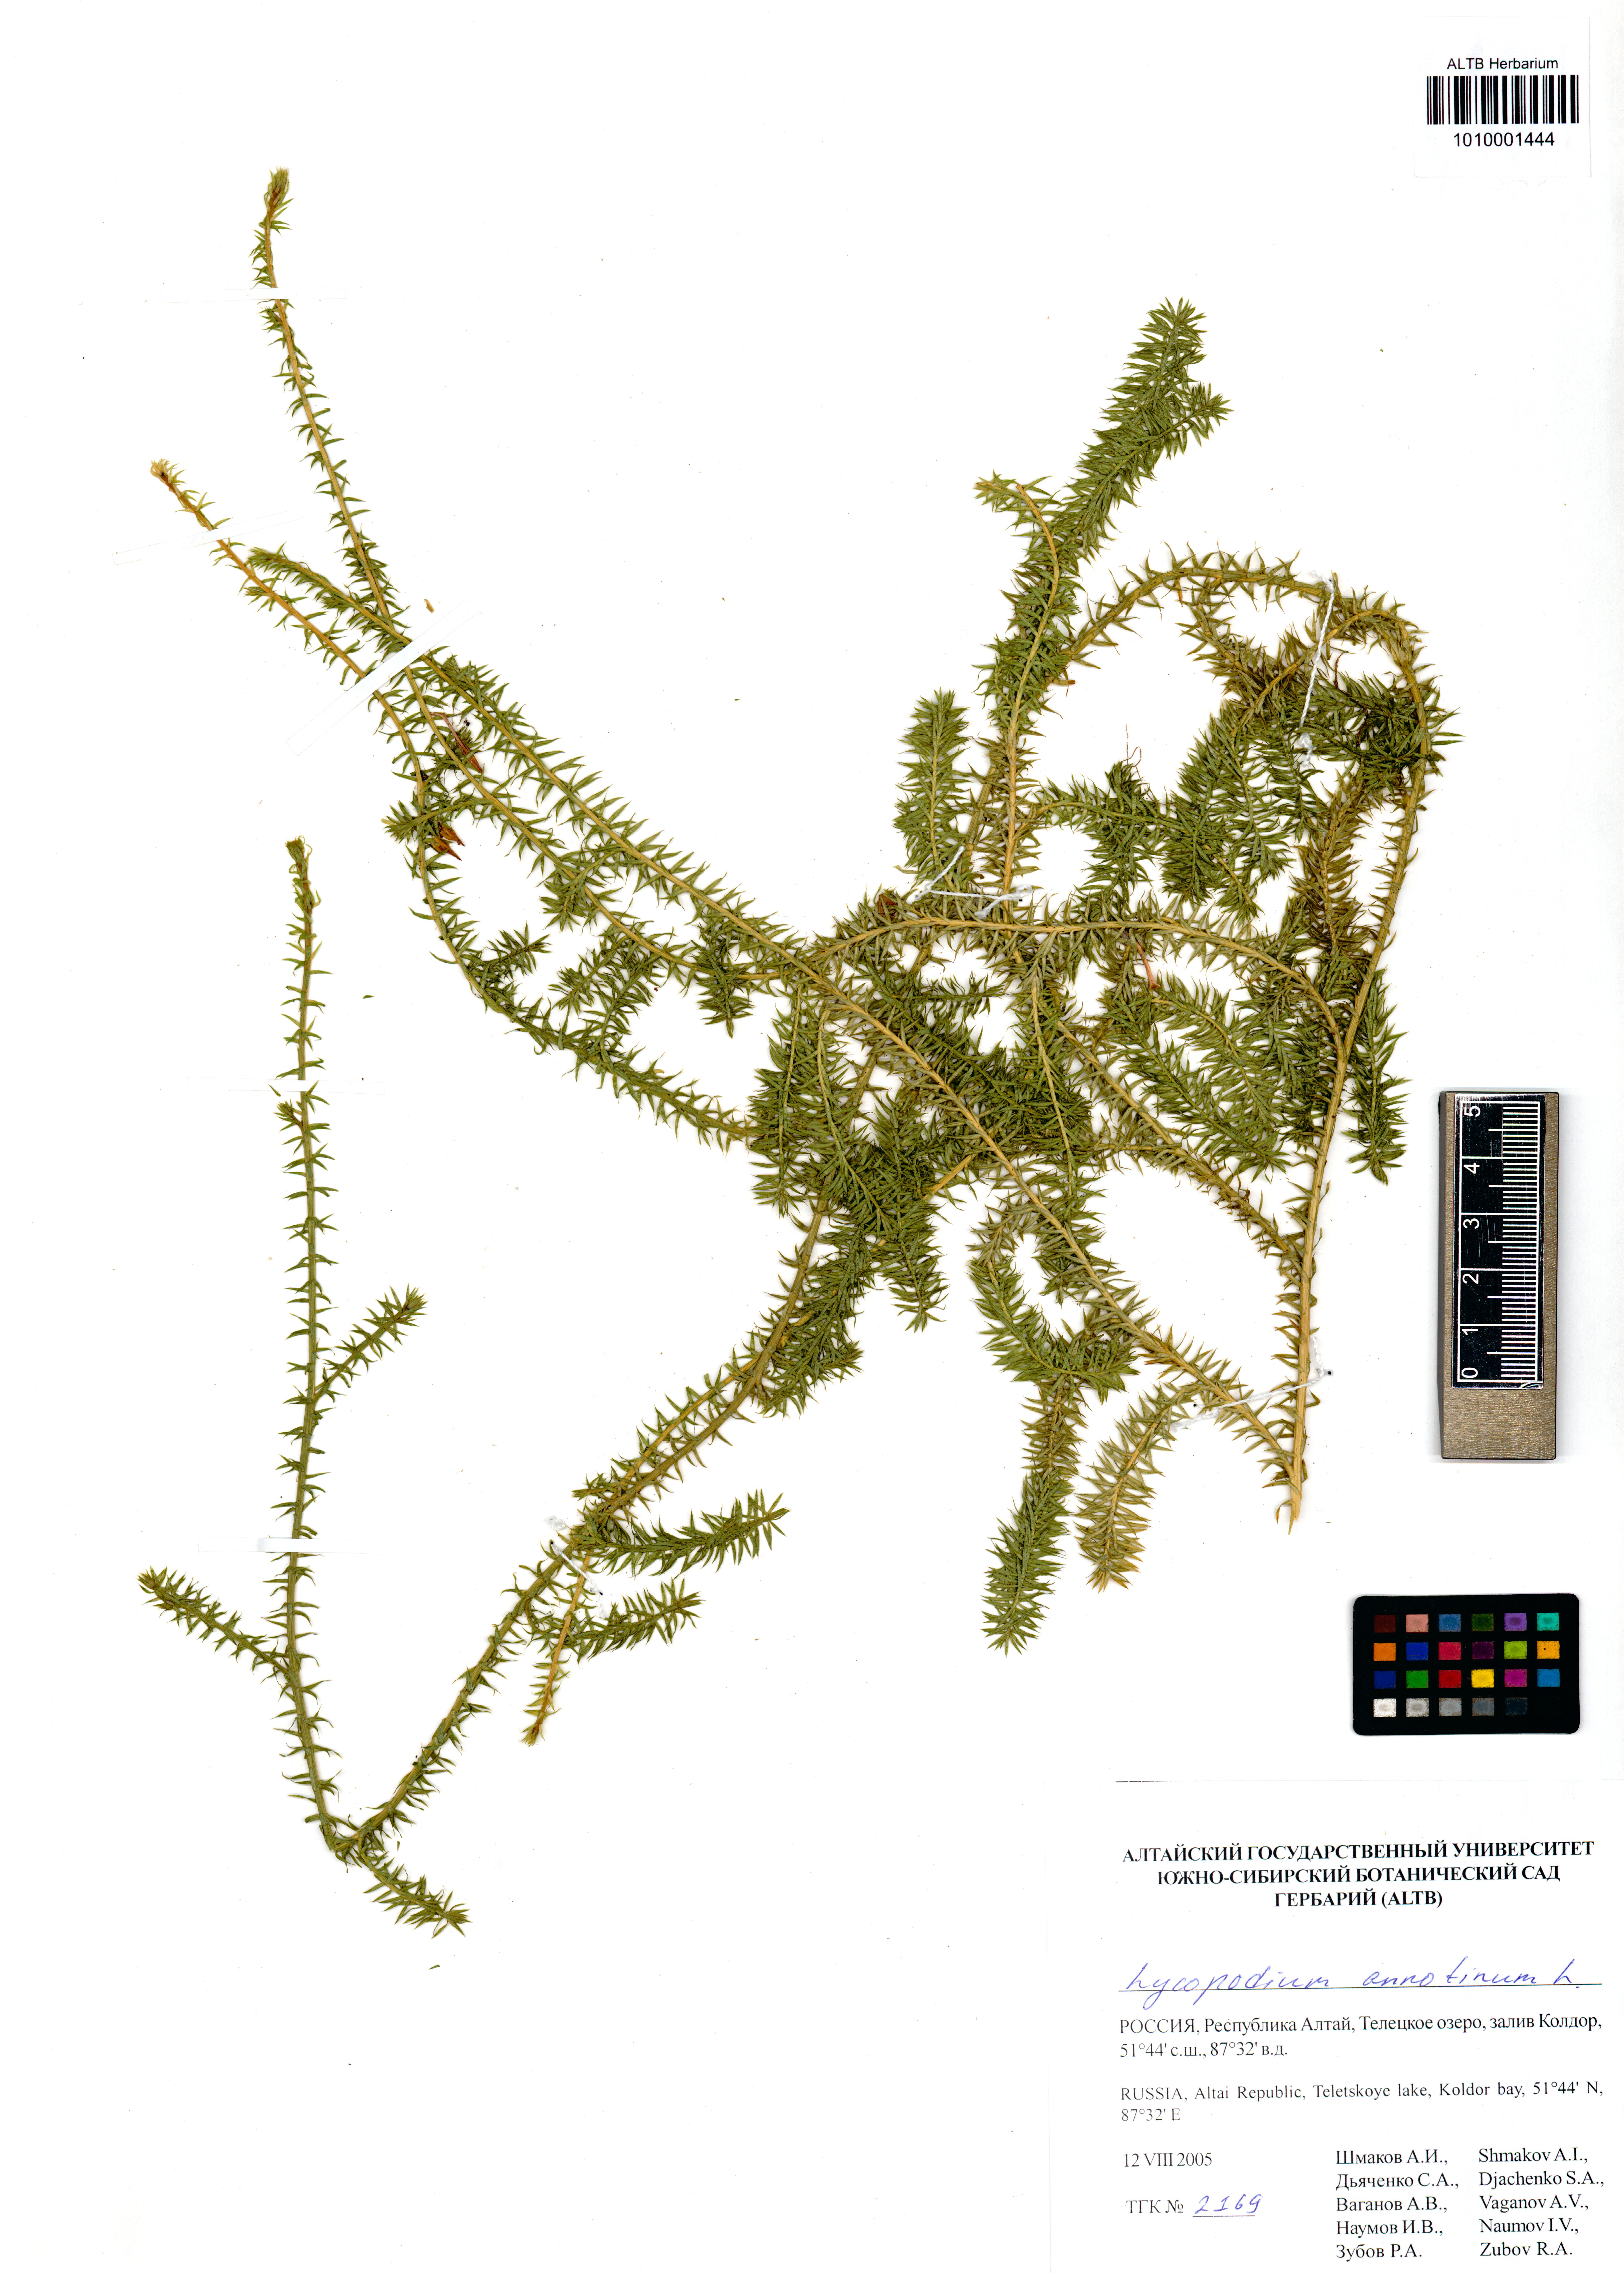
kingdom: Plantae
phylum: Tracheophyta
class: Lycopodiopsida
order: Lycopodiales
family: Lycopodiaceae
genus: Spinulum
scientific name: Spinulum annotinum
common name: Interrupted club-moss
